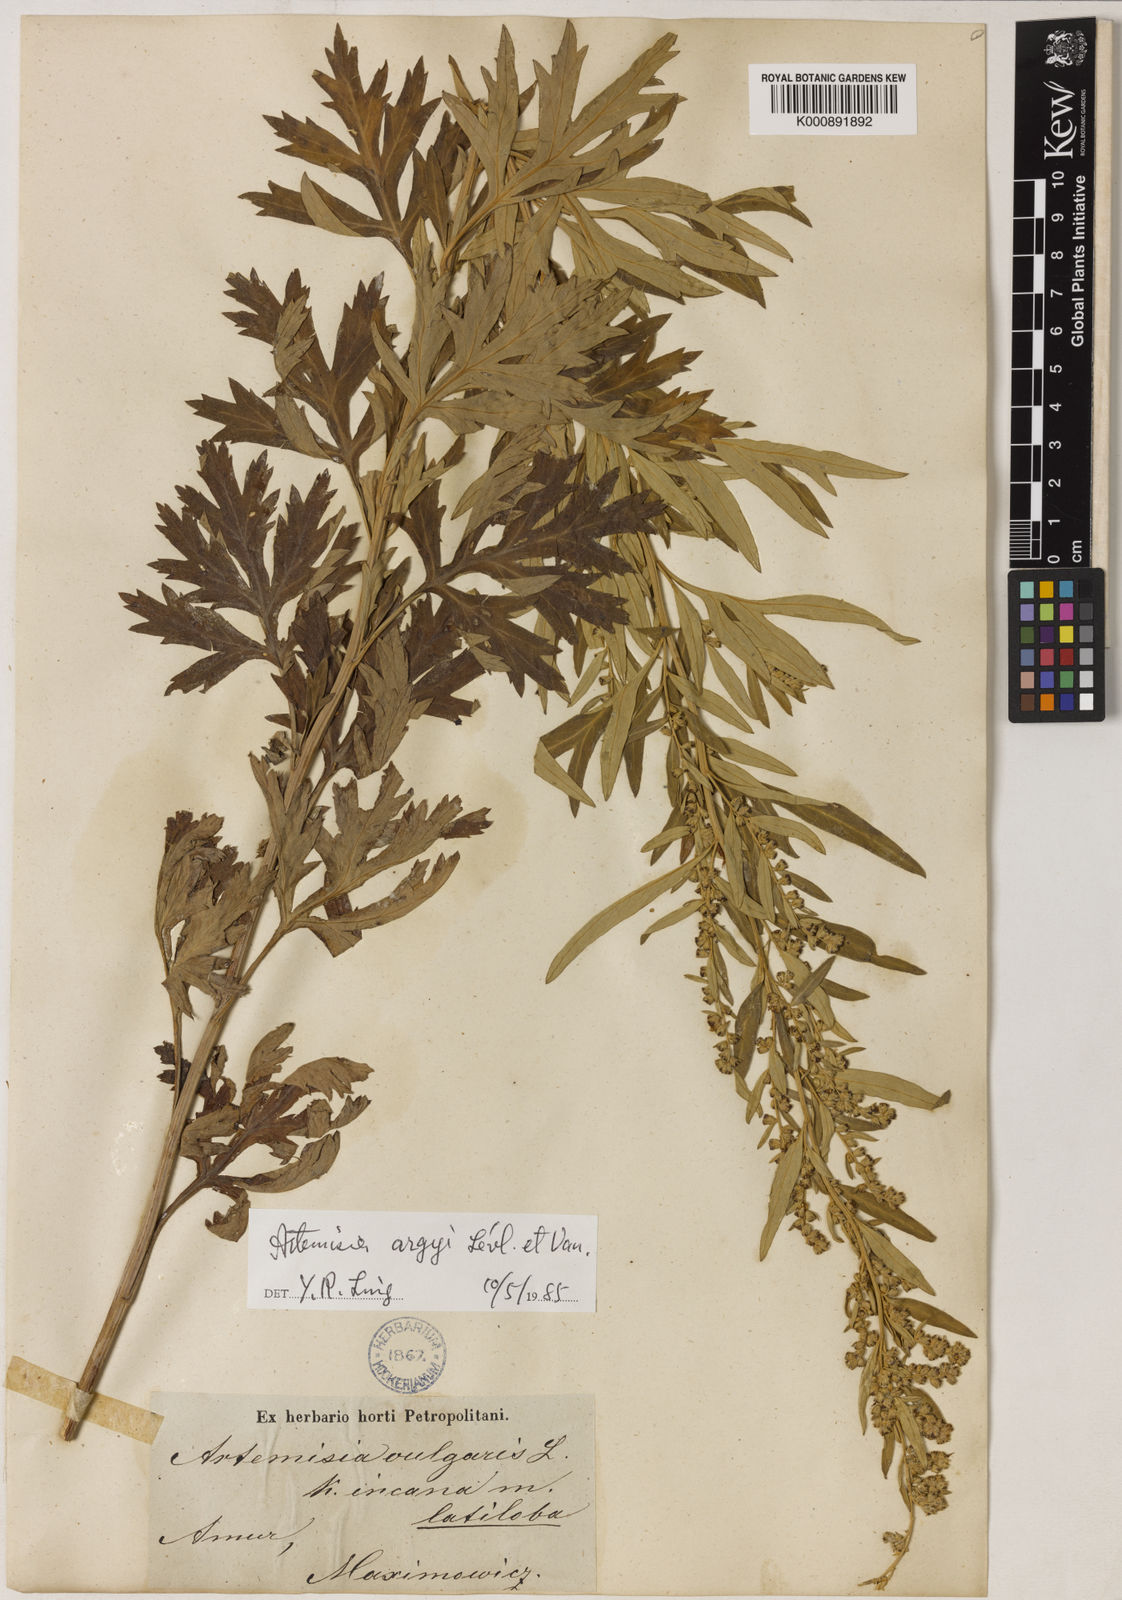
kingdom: Plantae
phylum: Tracheophyta
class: Magnoliopsida
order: Asterales
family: Asteraceae
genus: Artemisia
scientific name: Artemisia
